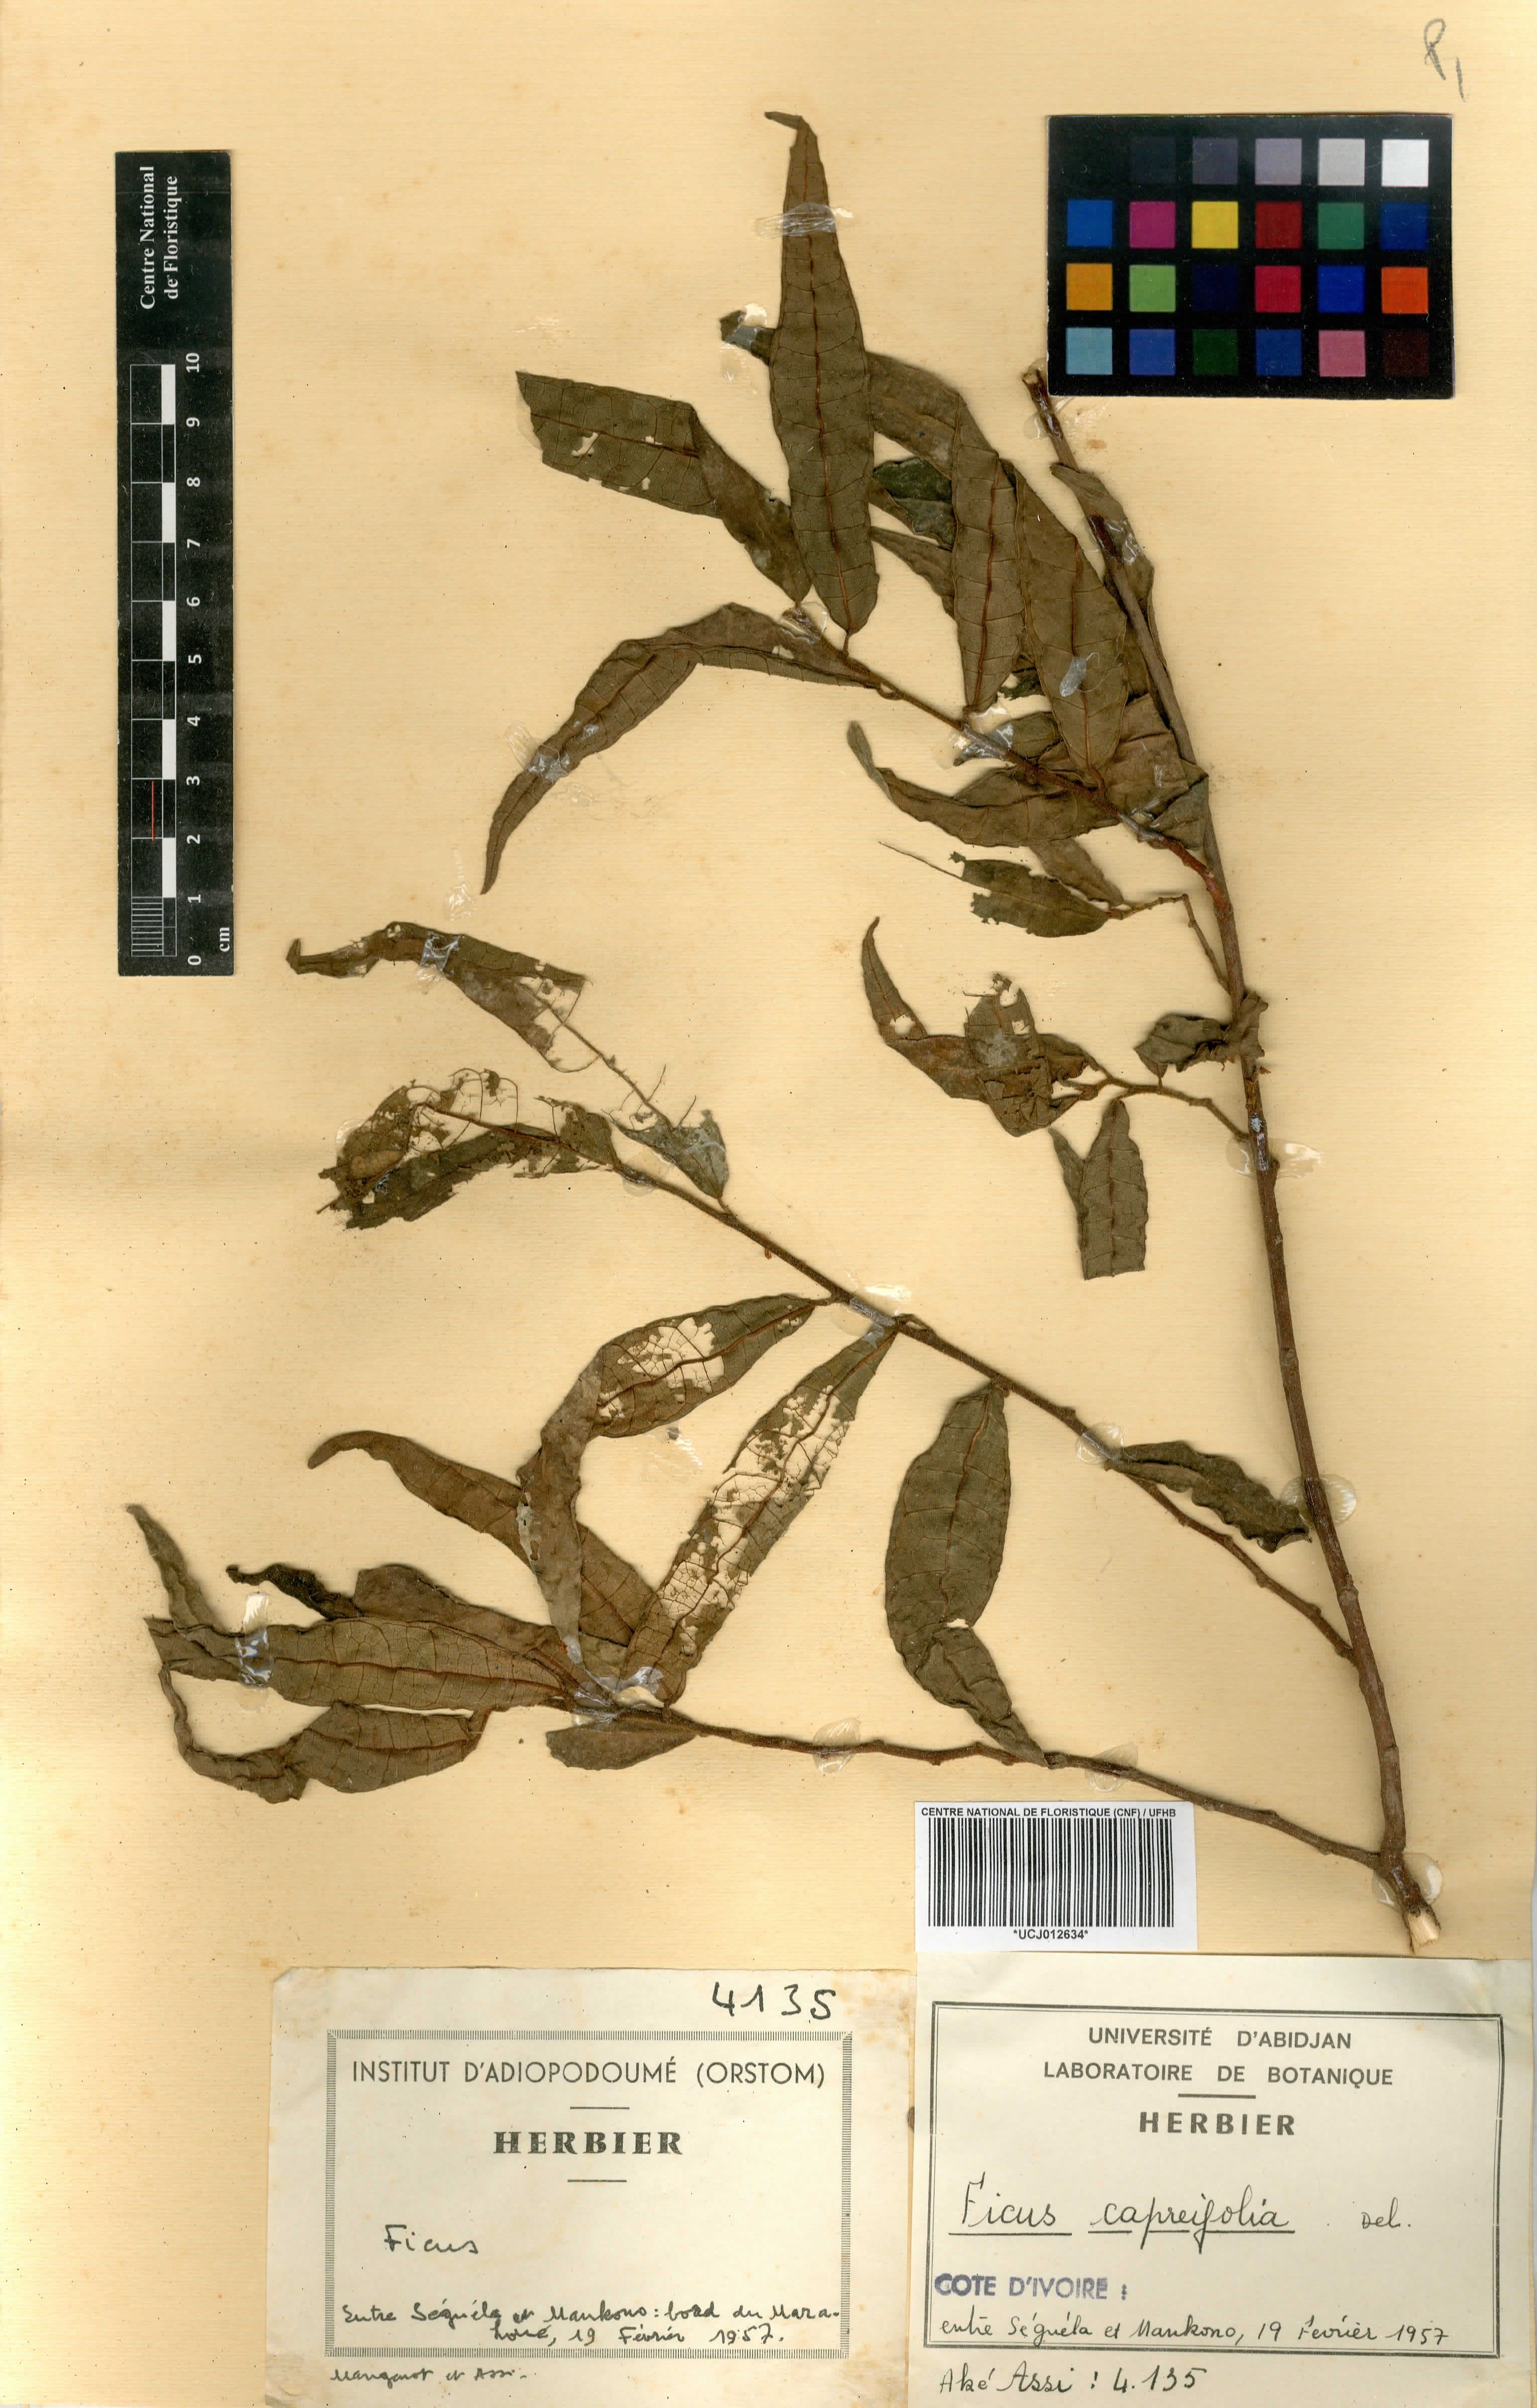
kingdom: Plantae
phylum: Tracheophyta
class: Magnoliopsida
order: Rosales
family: Moraceae
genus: Ficus
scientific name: Ficus capreifolia
